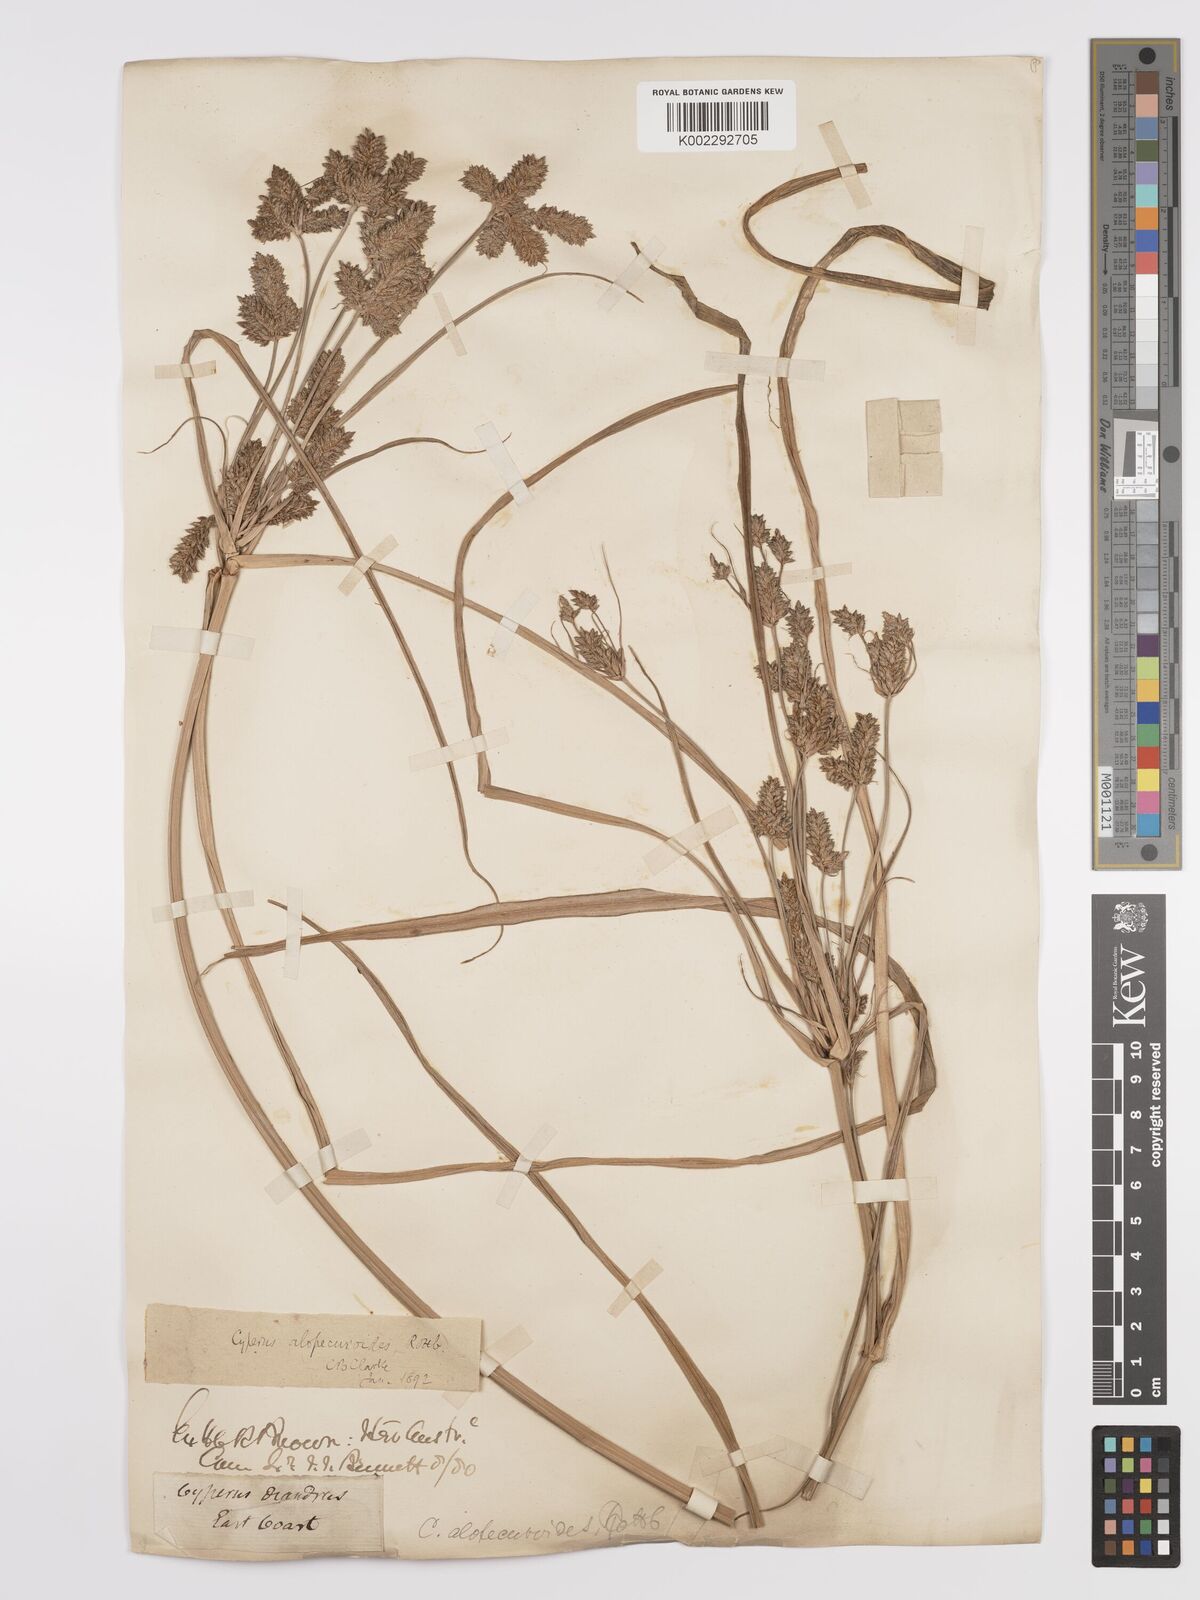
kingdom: Plantae
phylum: Tracheophyta
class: Liliopsida
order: Poales
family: Cyperaceae
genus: Cyperus
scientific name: Cyperus alopecuroides
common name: Foxtail flatsedge
